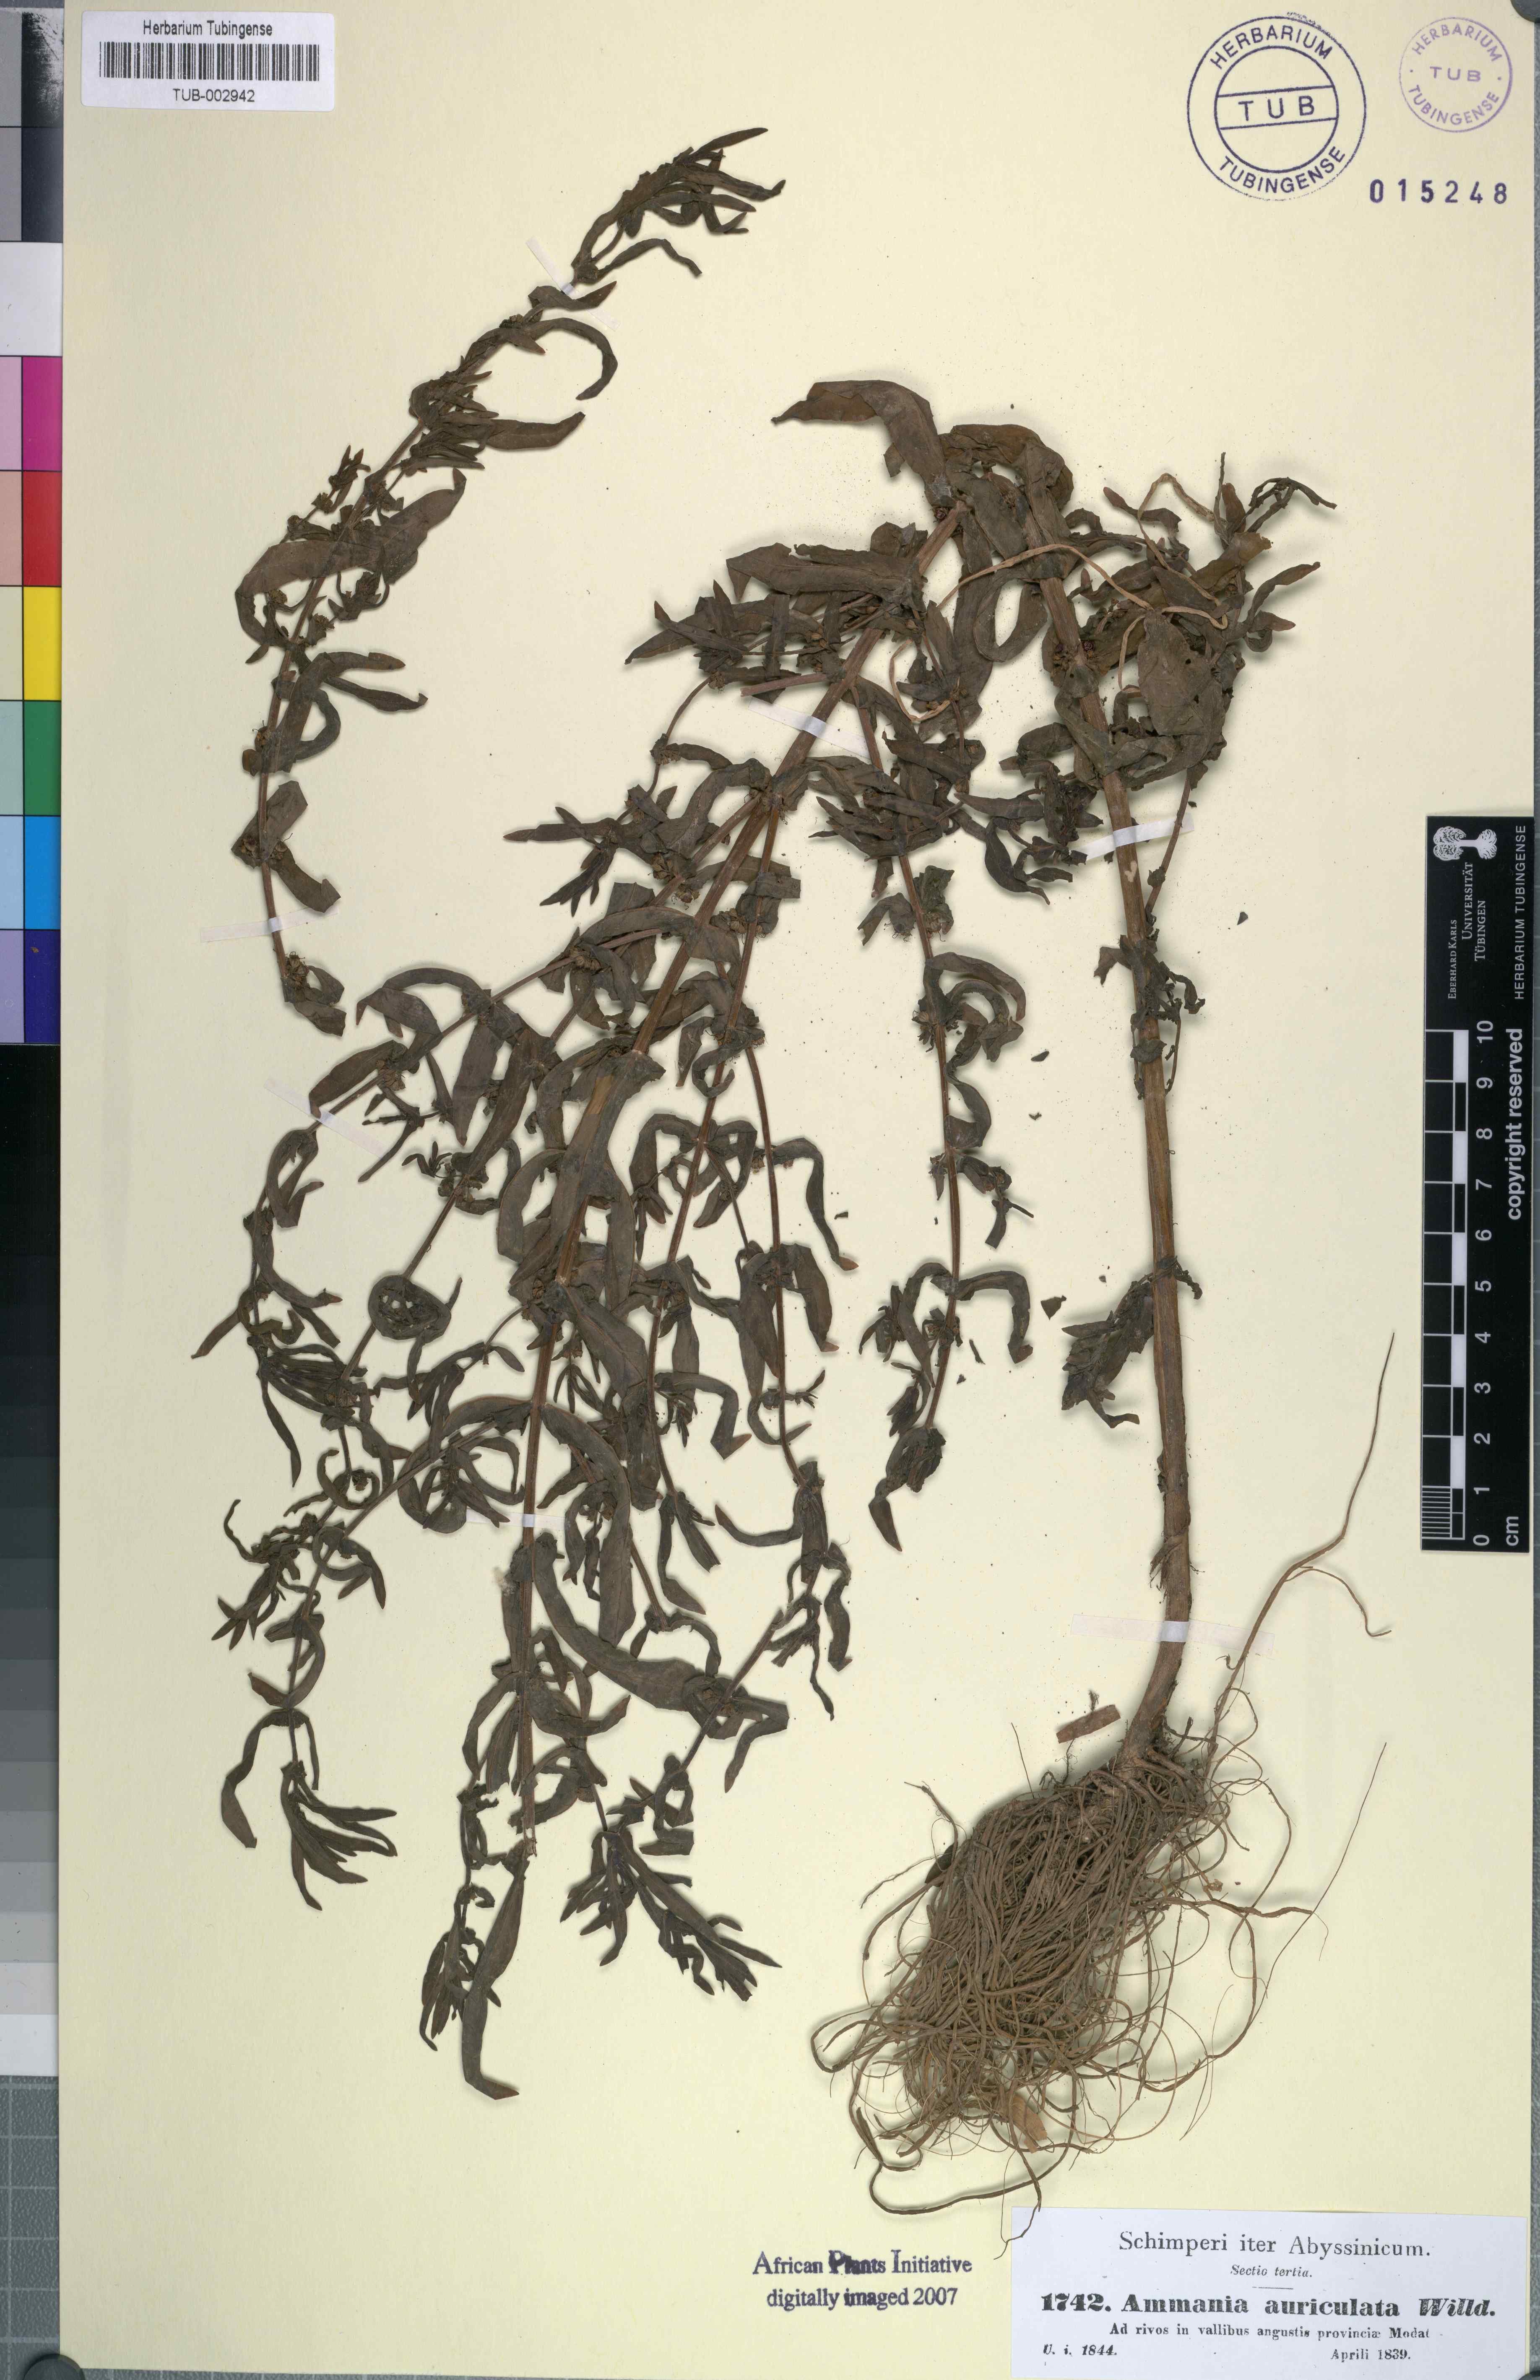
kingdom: Plantae
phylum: Tracheophyta
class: Magnoliopsida
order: Myrtales
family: Lythraceae
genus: Ammannia
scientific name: Ammannia auriculata
